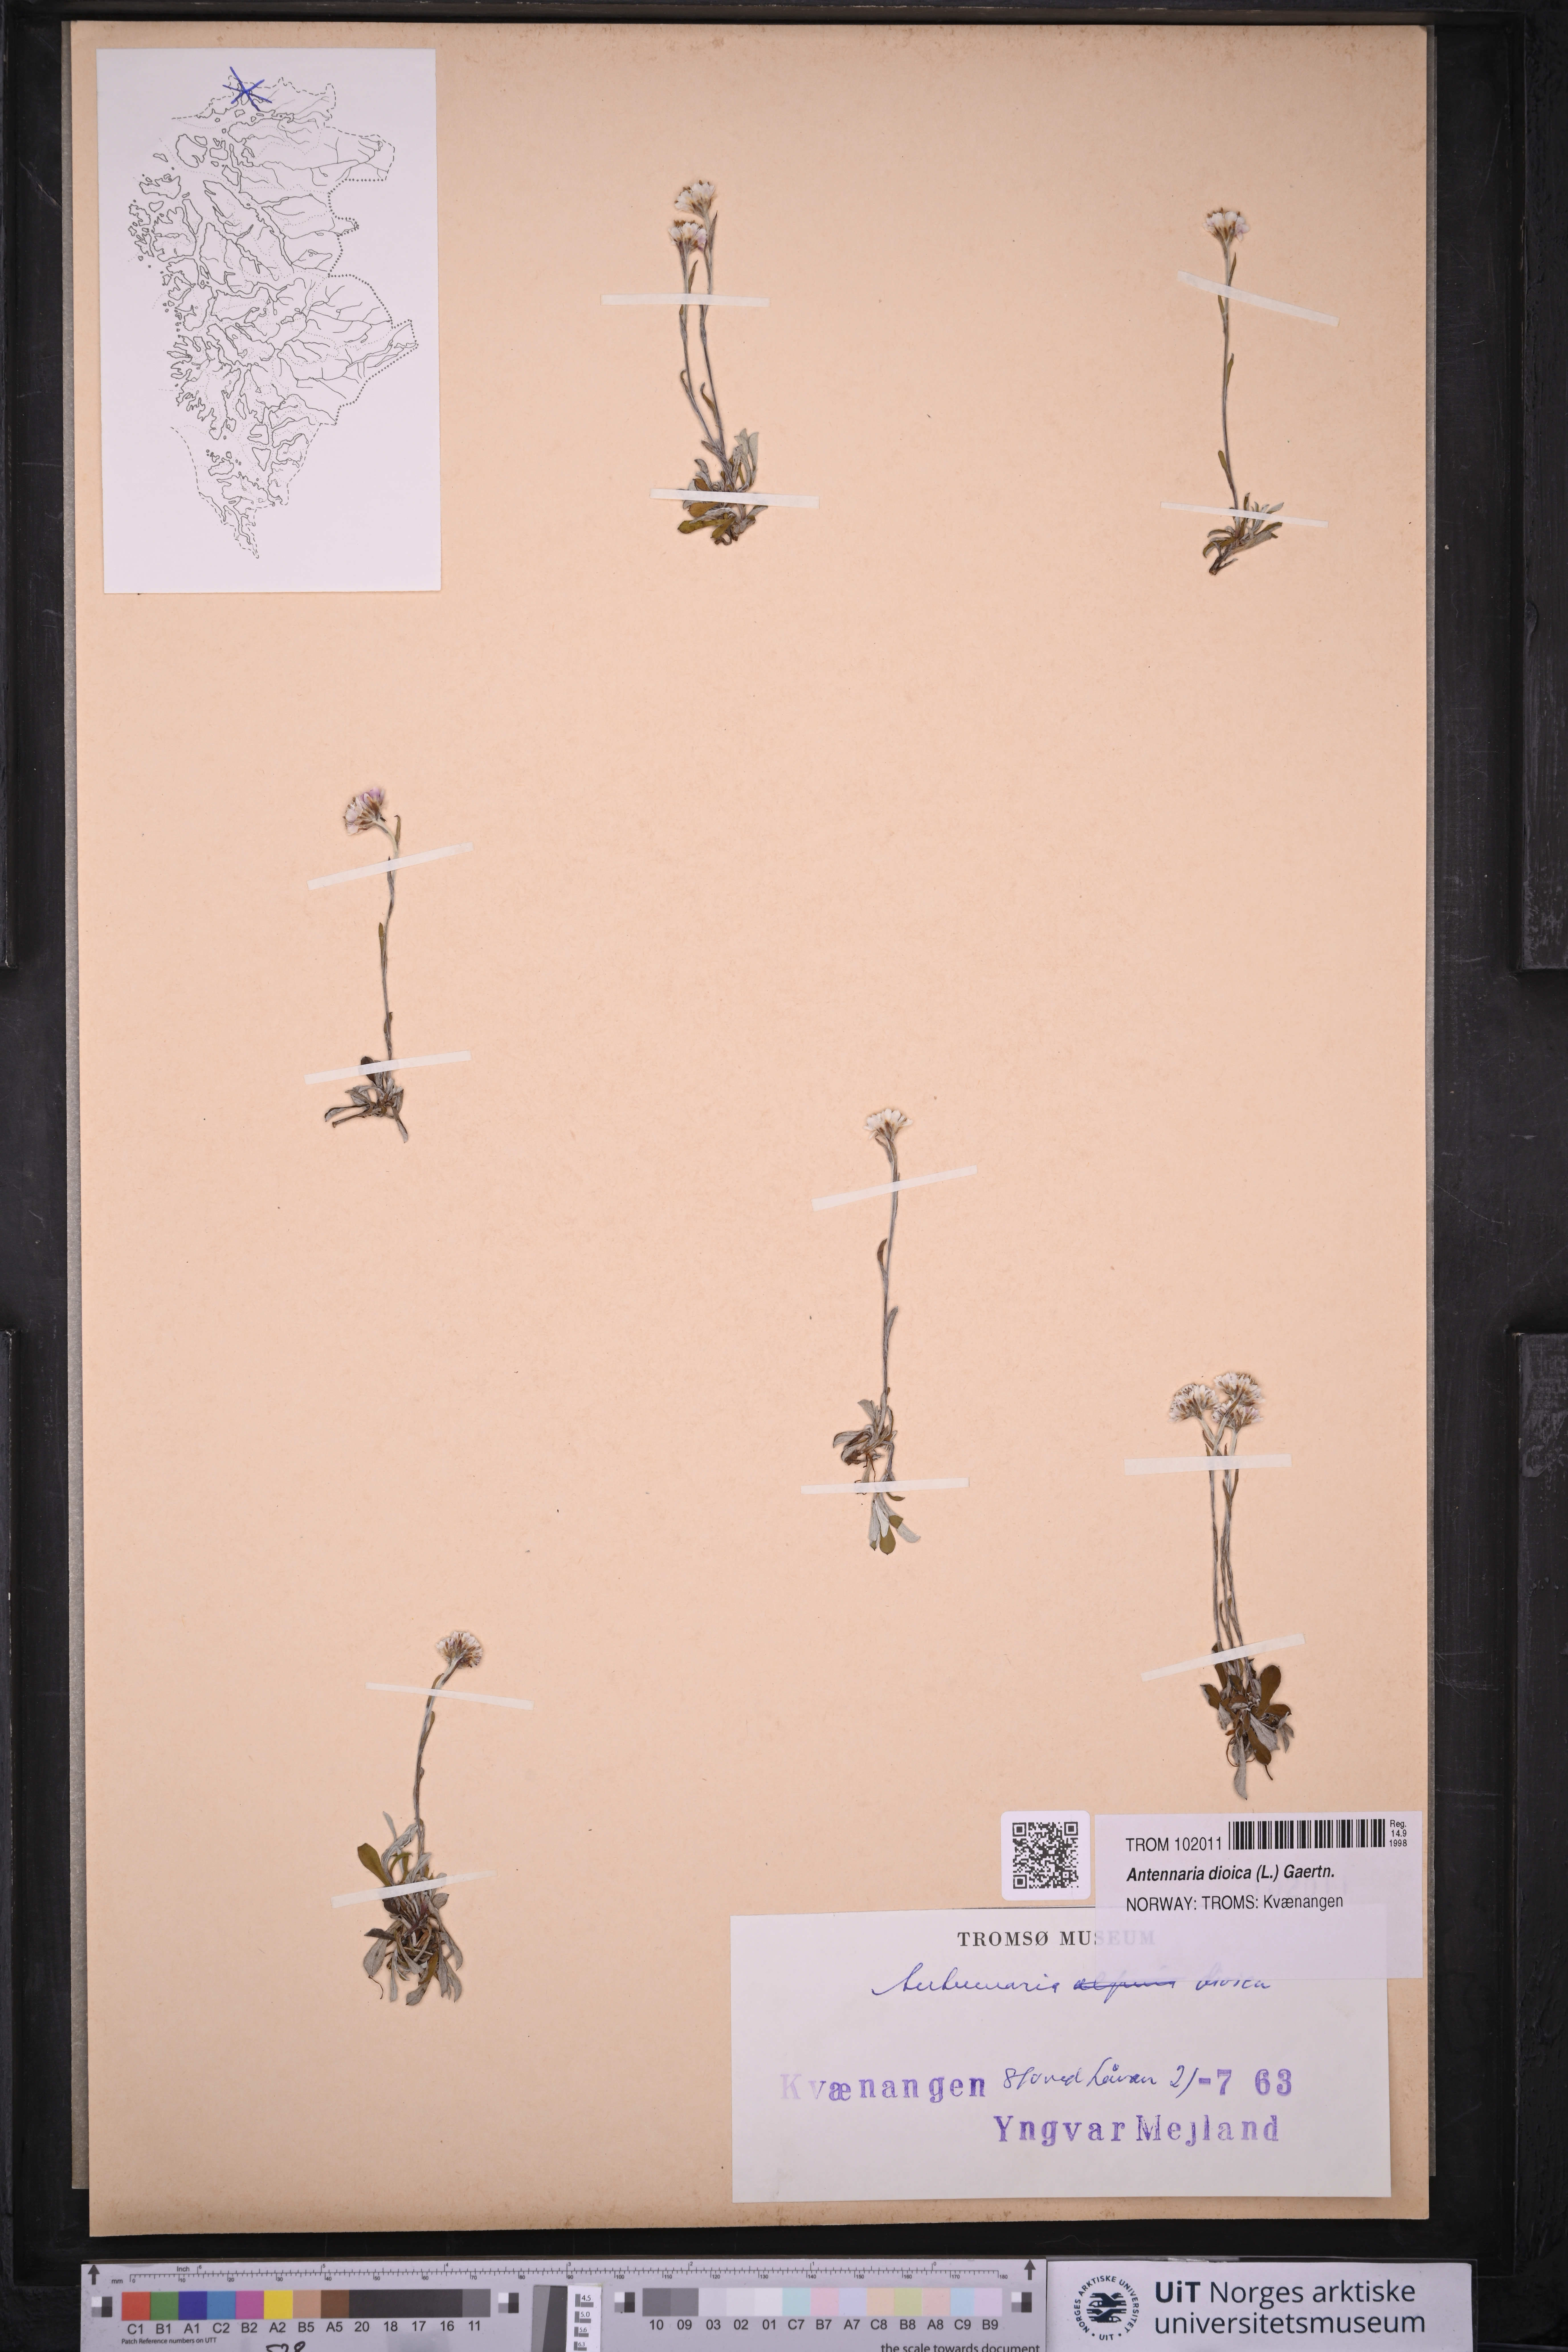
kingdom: Plantae
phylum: Tracheophyta
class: Magnoliopsida
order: Asterales
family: Asteraceae
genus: Antennaria
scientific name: Antennaria dioica
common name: Mountain everlasting
